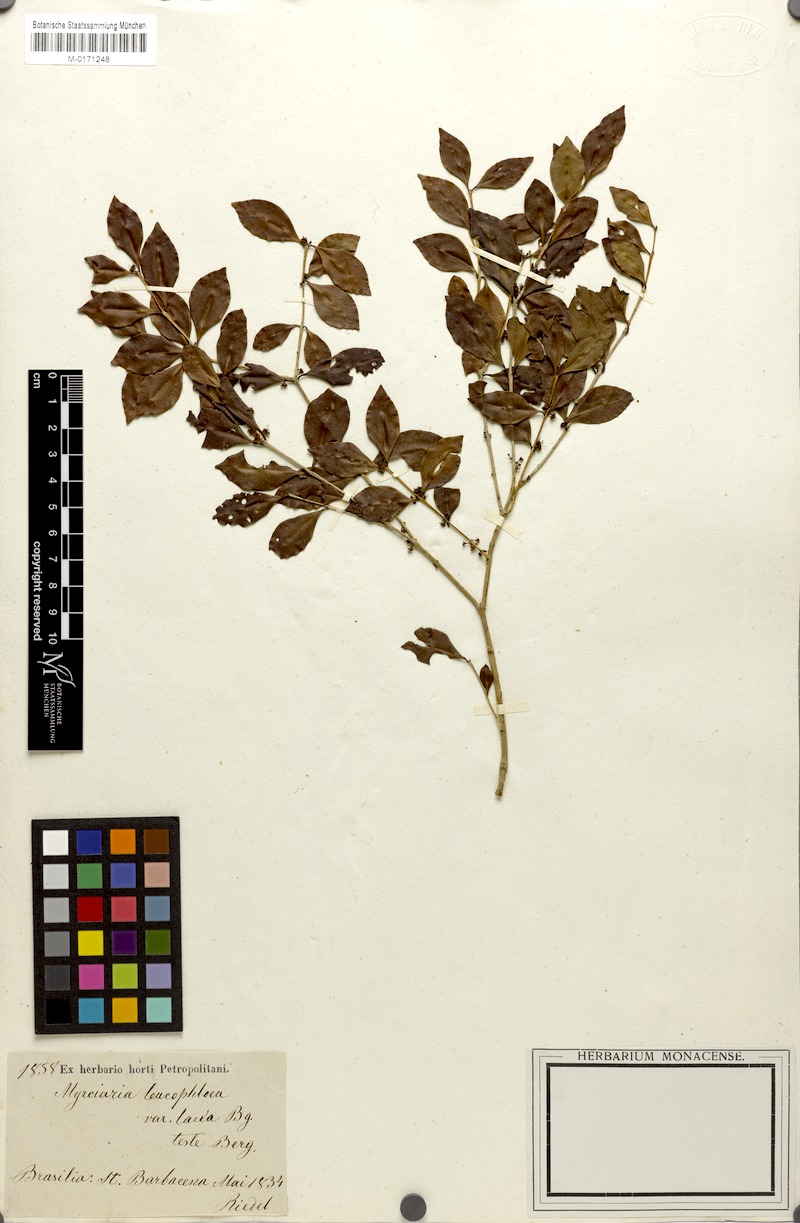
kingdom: Plantae
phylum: Tracheophyta
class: Magnoliopsida
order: Myrtales
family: Myrtaceae
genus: Myrciaria
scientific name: Myrciaria floribunda
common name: Guavaberry
